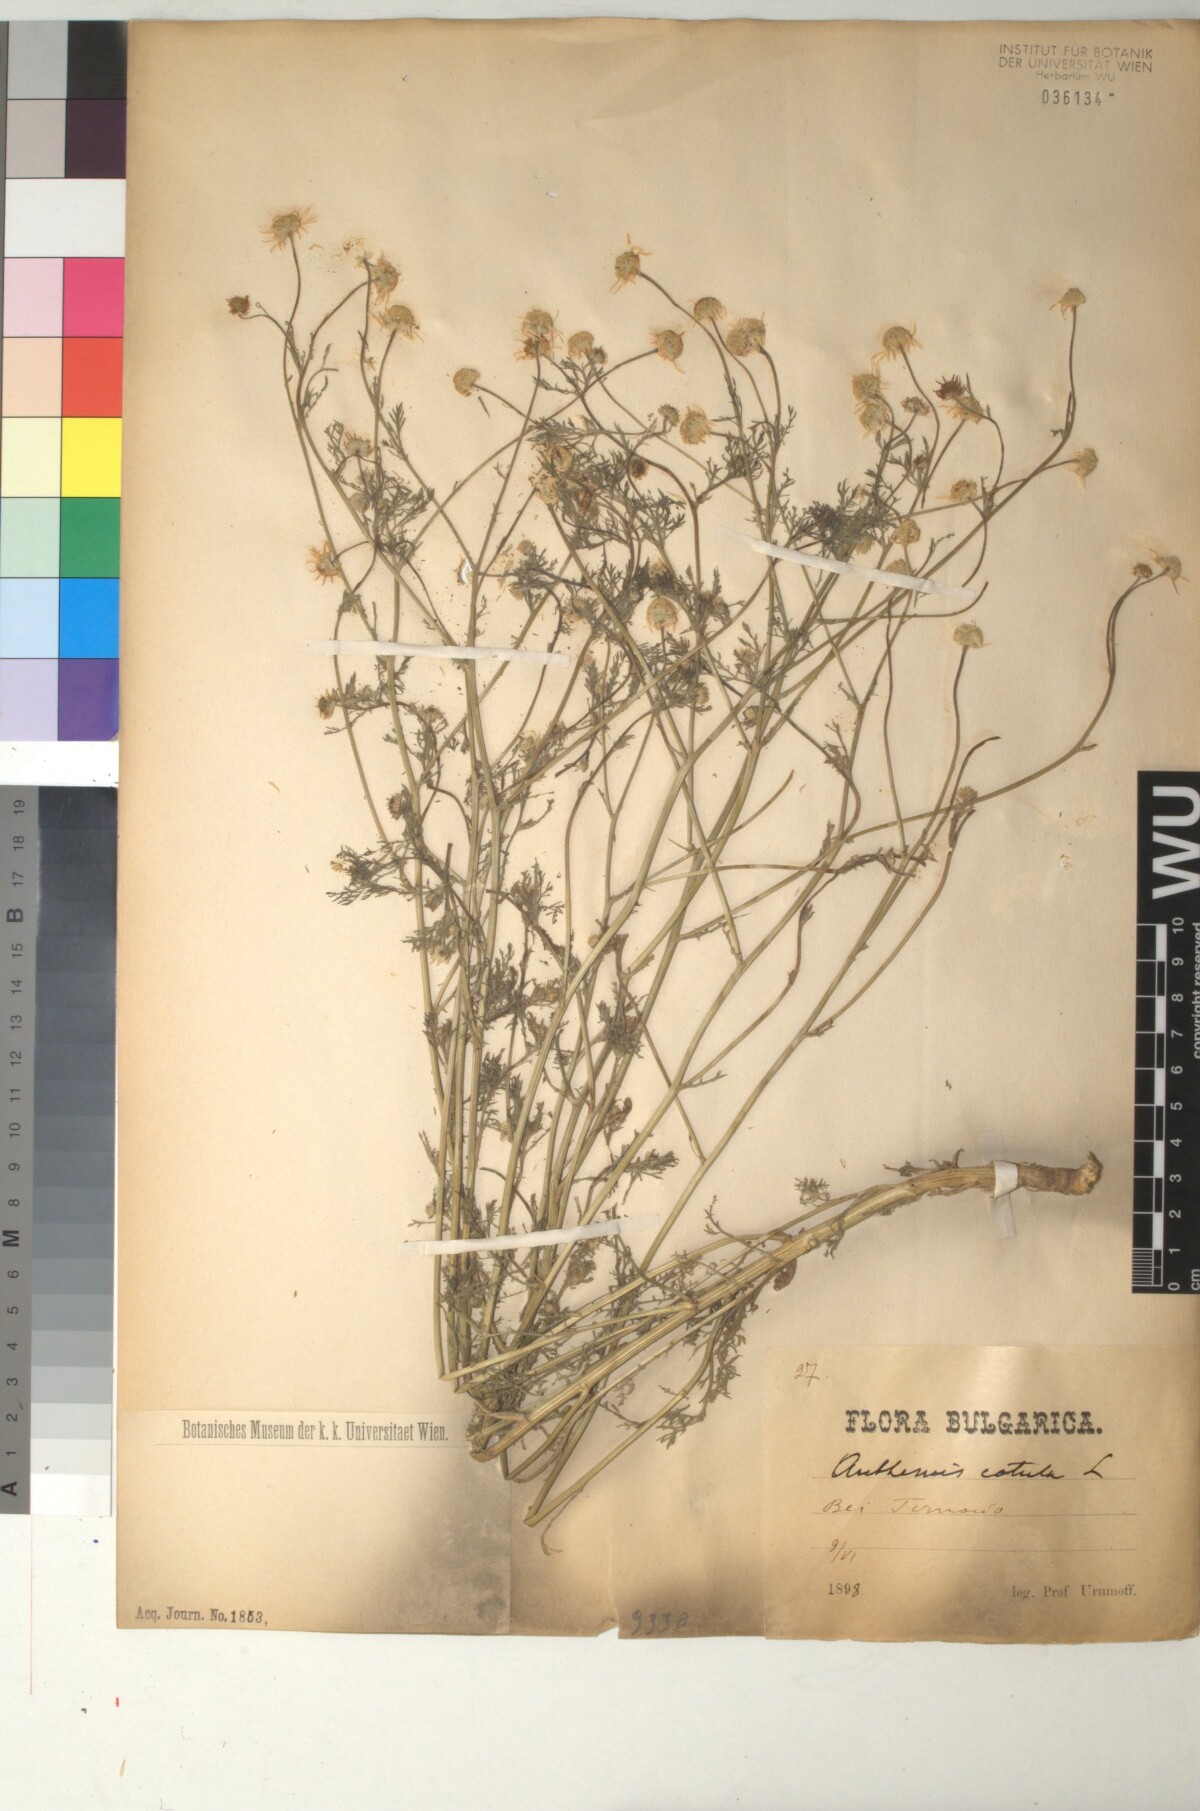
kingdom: Plantae
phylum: Tracheophyta
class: Magnoliopsida
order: Asterales
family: Asteraceae
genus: Anthemis
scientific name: Anthemis cotula
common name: Stinking chamomile
